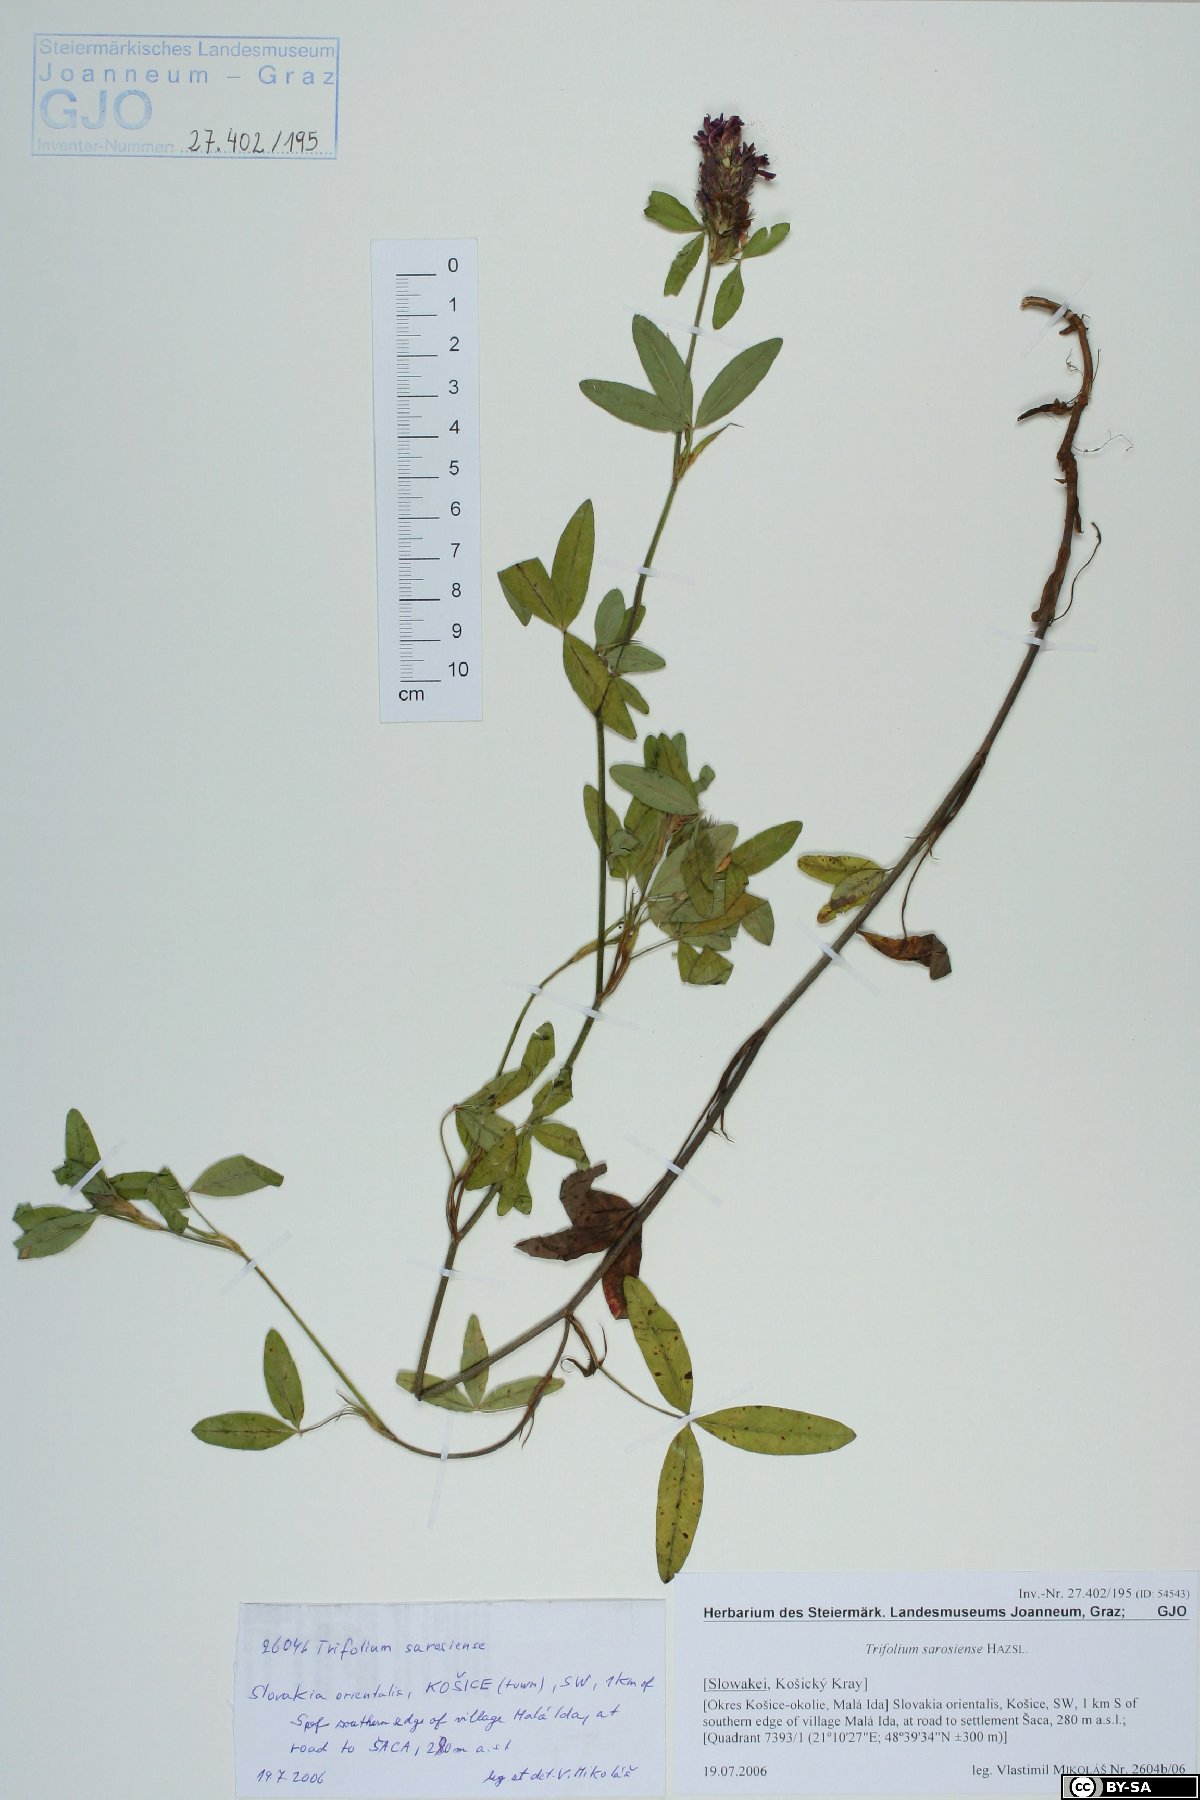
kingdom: Plantae
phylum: Tracheophyta
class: Magnoliopsida
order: Fabales
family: Fabaceae
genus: Trifolium
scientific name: Trifolium sarosiense
